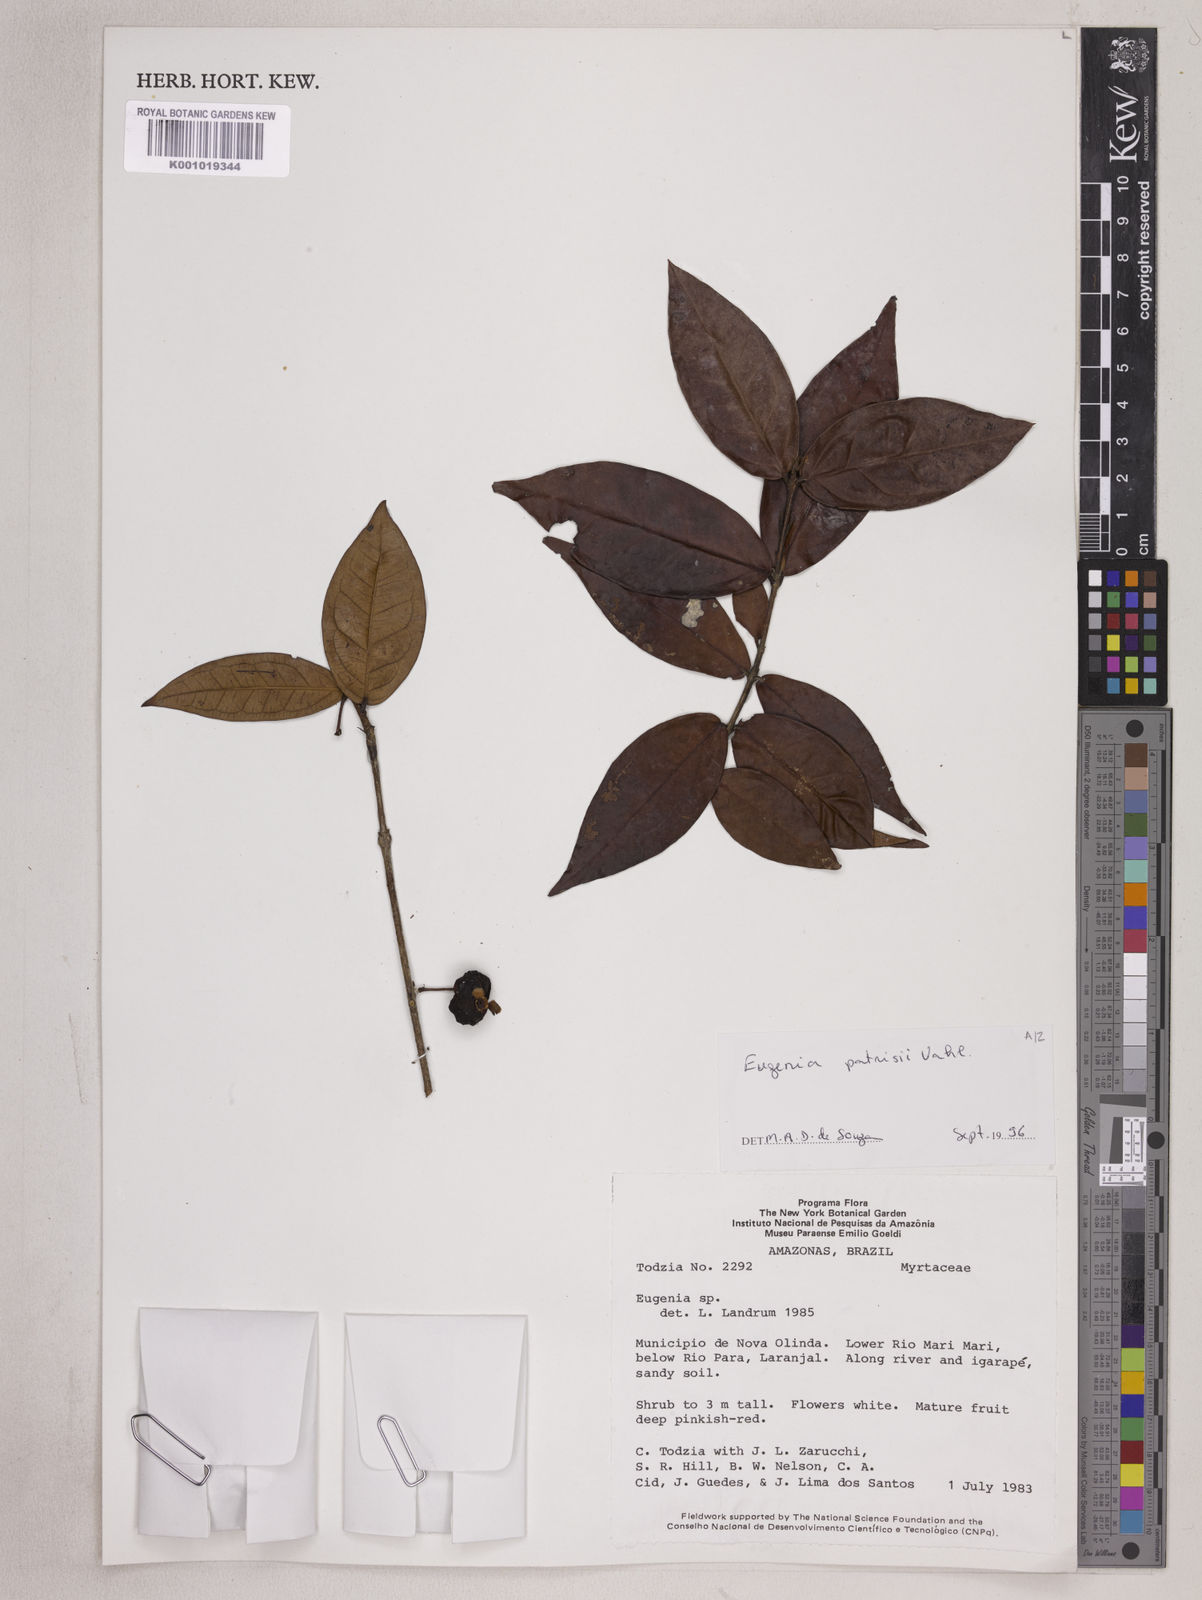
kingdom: Plantae
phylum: Tracheophyta
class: Magnoliopsida
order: Myrtales
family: Myrtaceae
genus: Eugenia
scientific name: Eugenia patrisii
